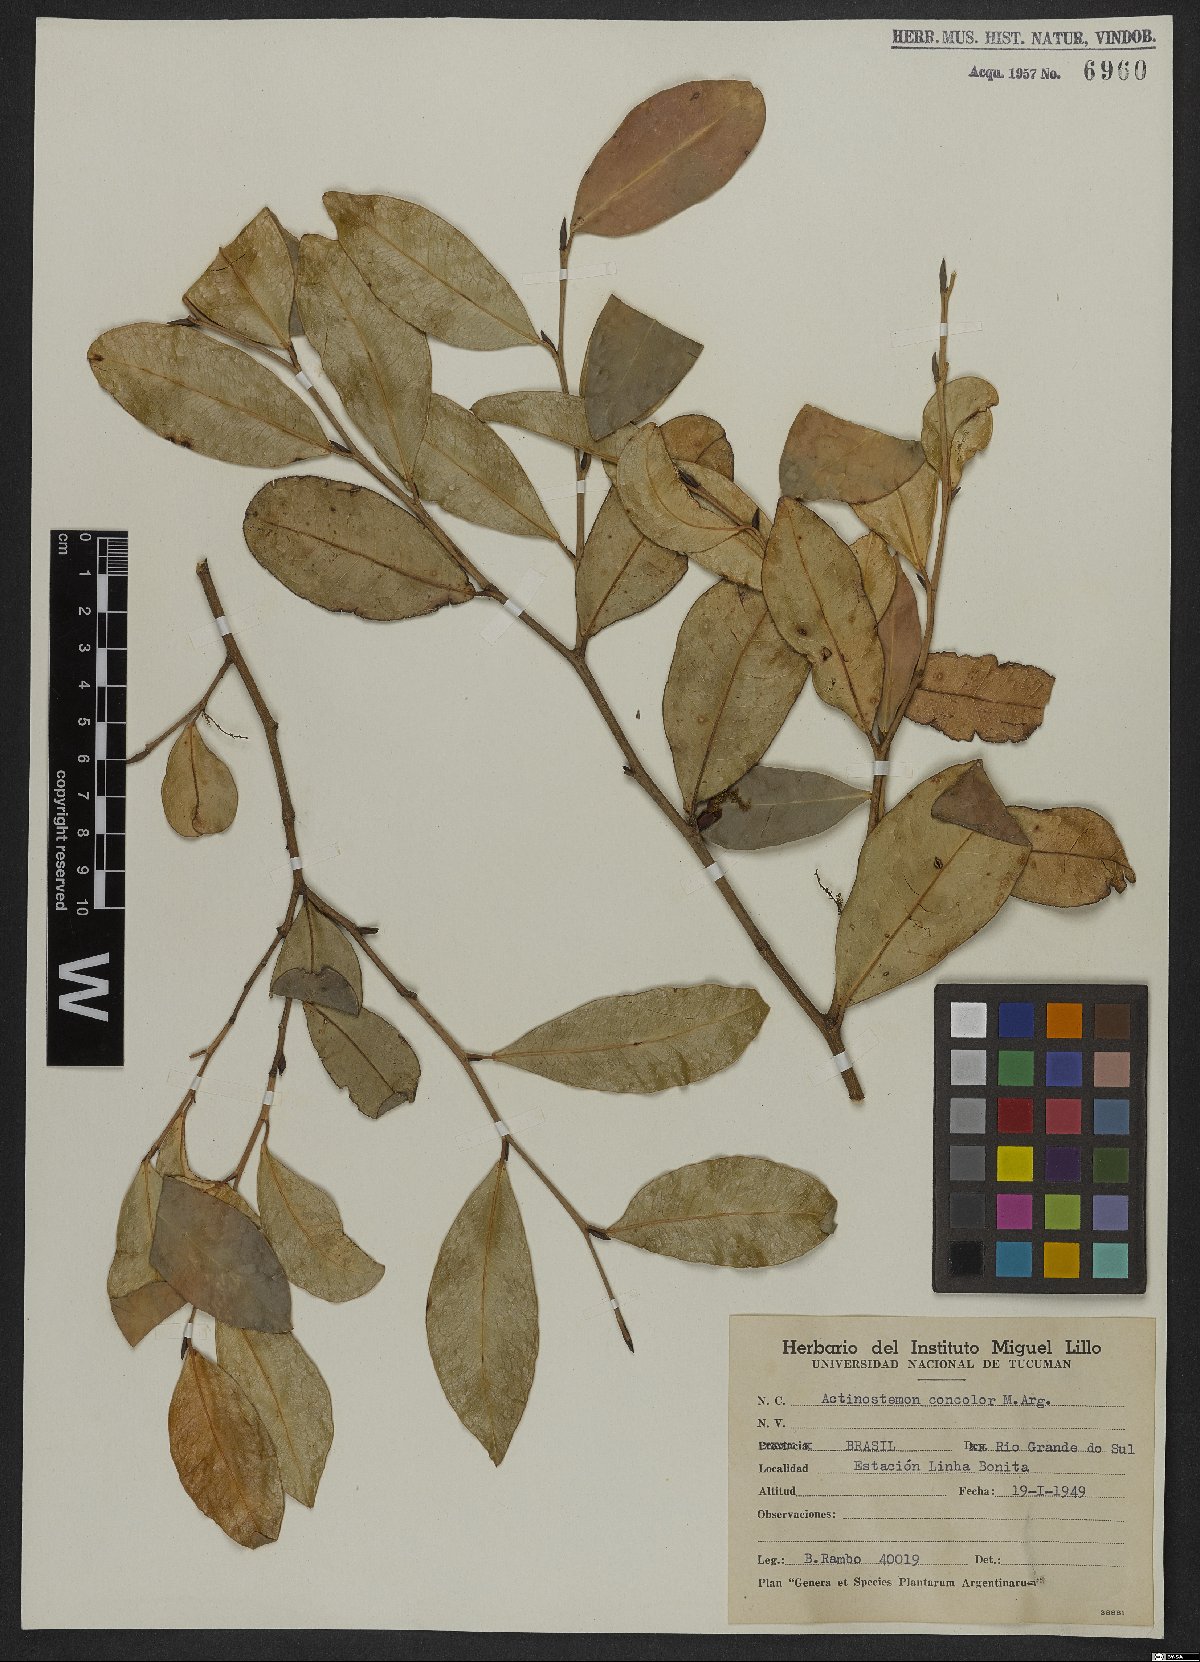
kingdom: Plantae
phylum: Tracheophyta
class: Magnoliopsida
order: Malpighiales
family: Euphorbiaceae
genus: Actinostemon
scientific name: Actinostemon concolor
